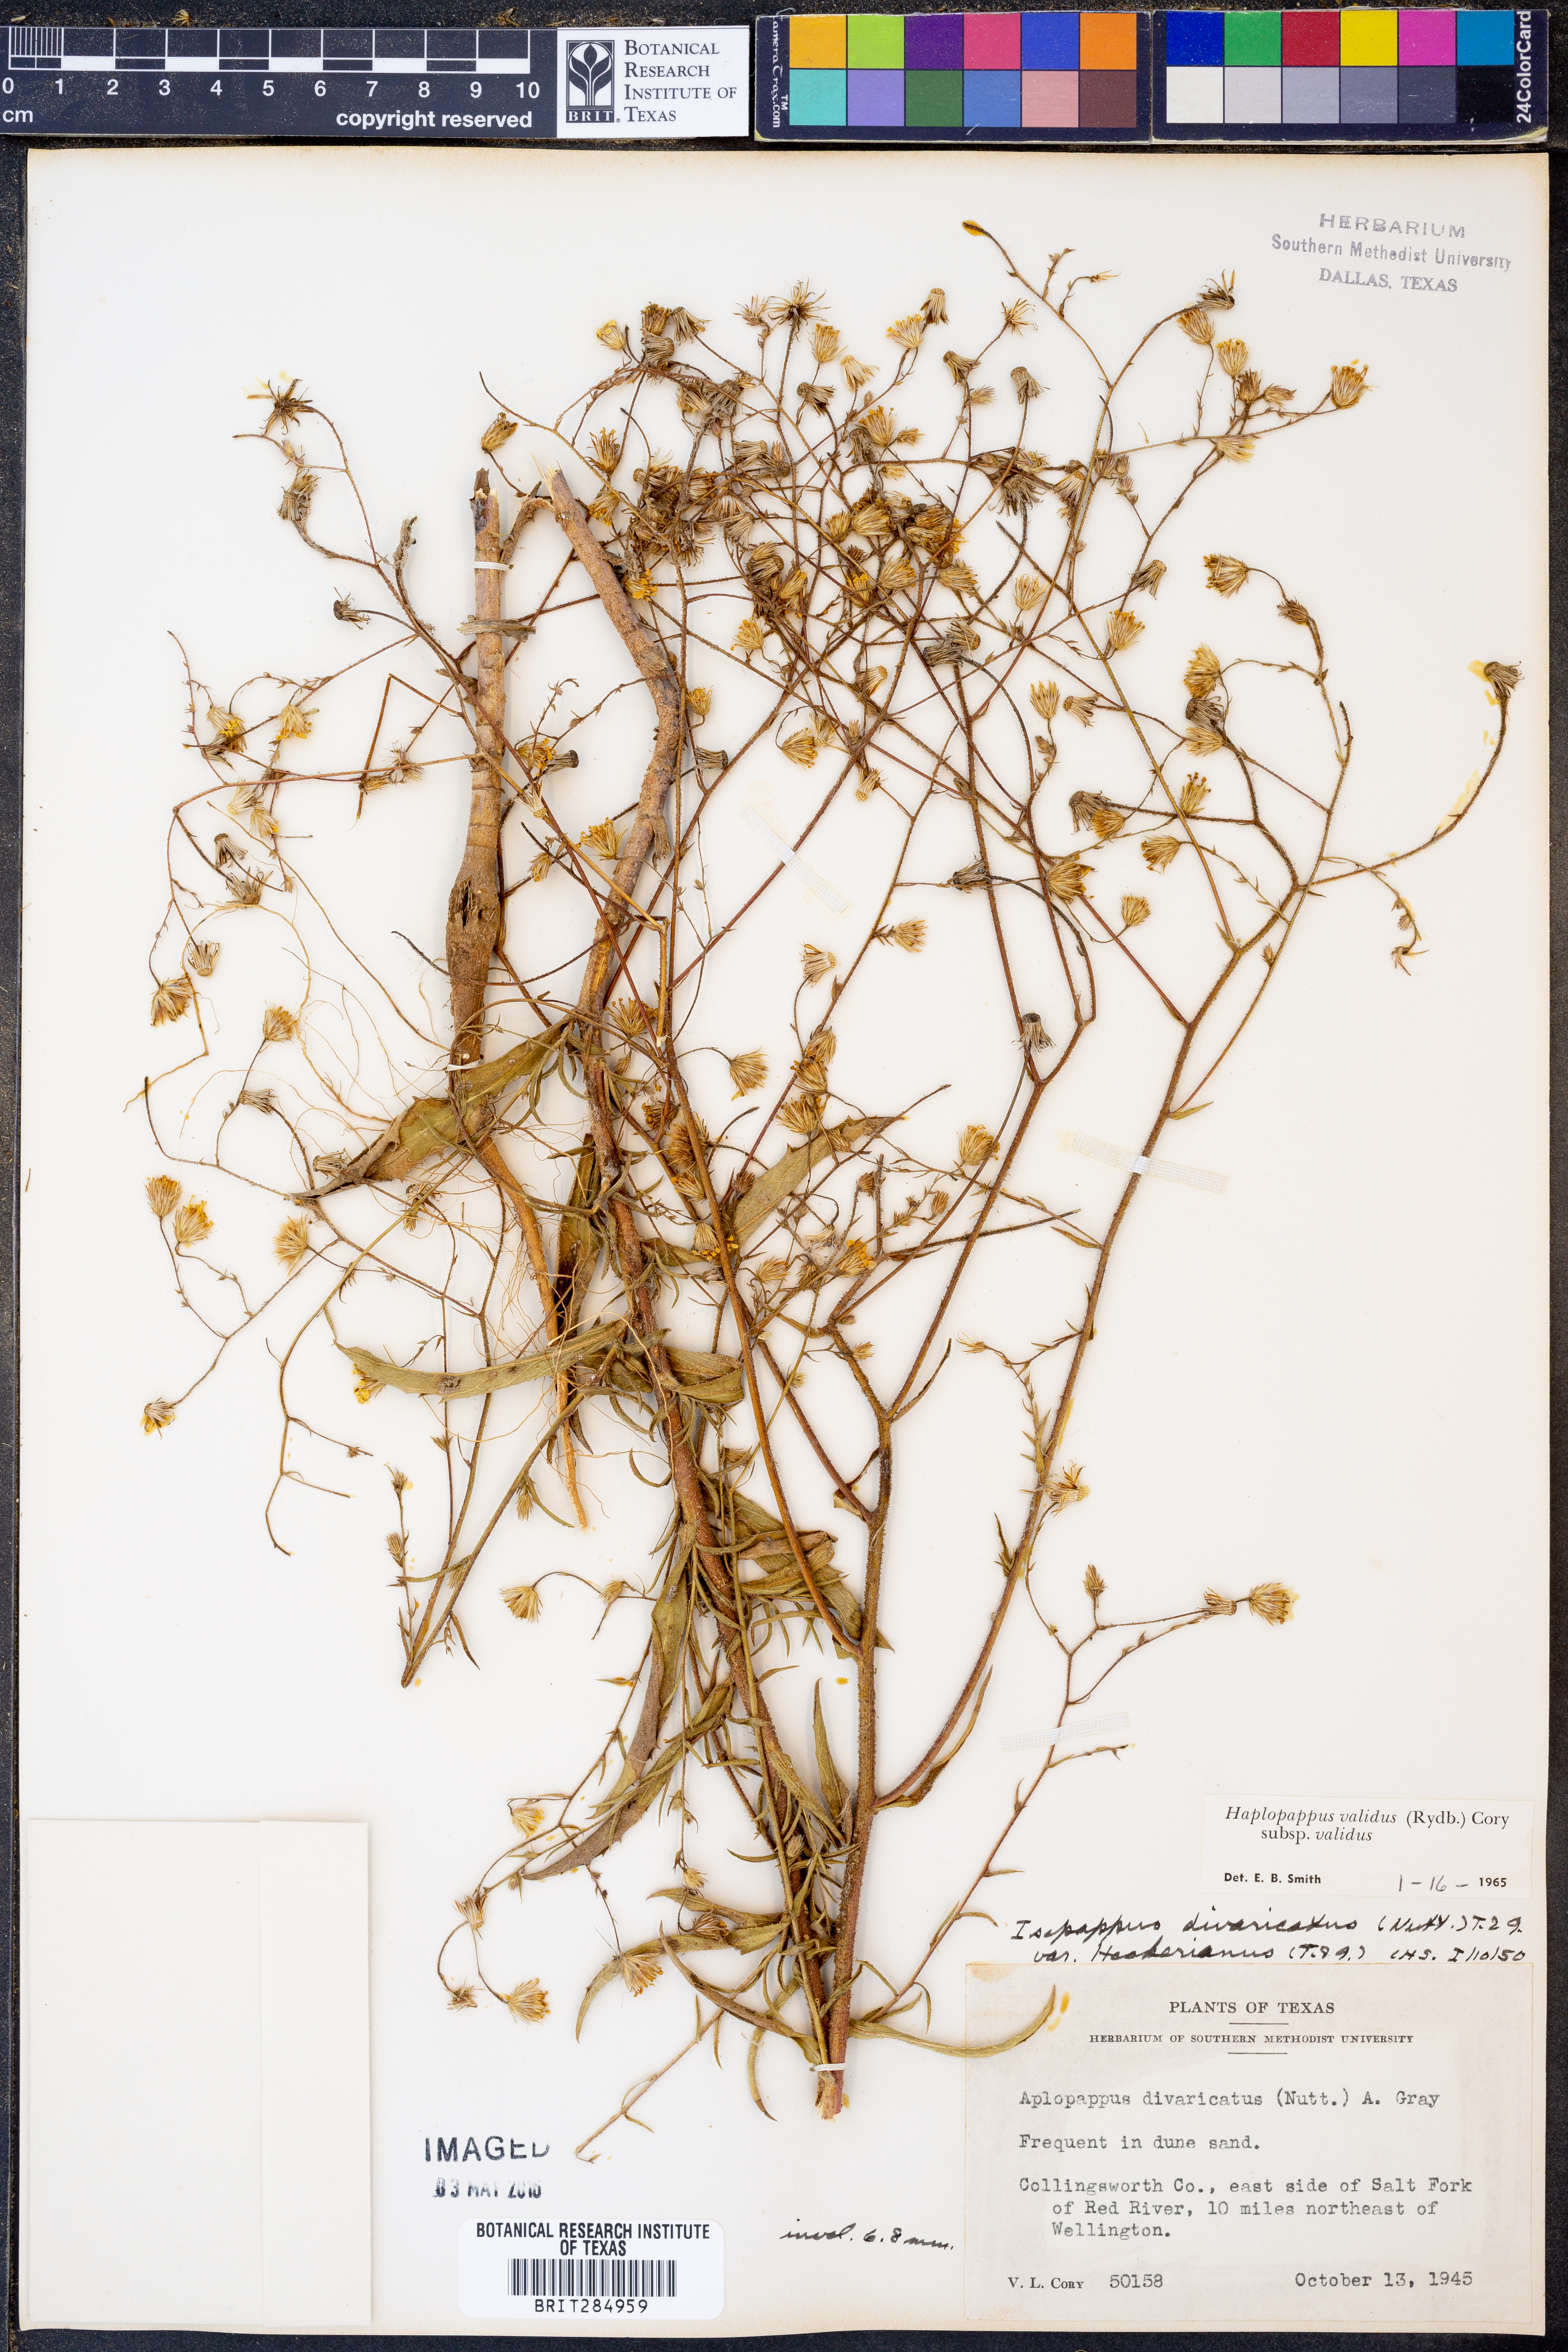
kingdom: Plantae
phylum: Tracheophyta
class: Magnoliopsida
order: Asterales
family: Asteraceae
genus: Croptilon
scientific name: Croptilon hookerianum
